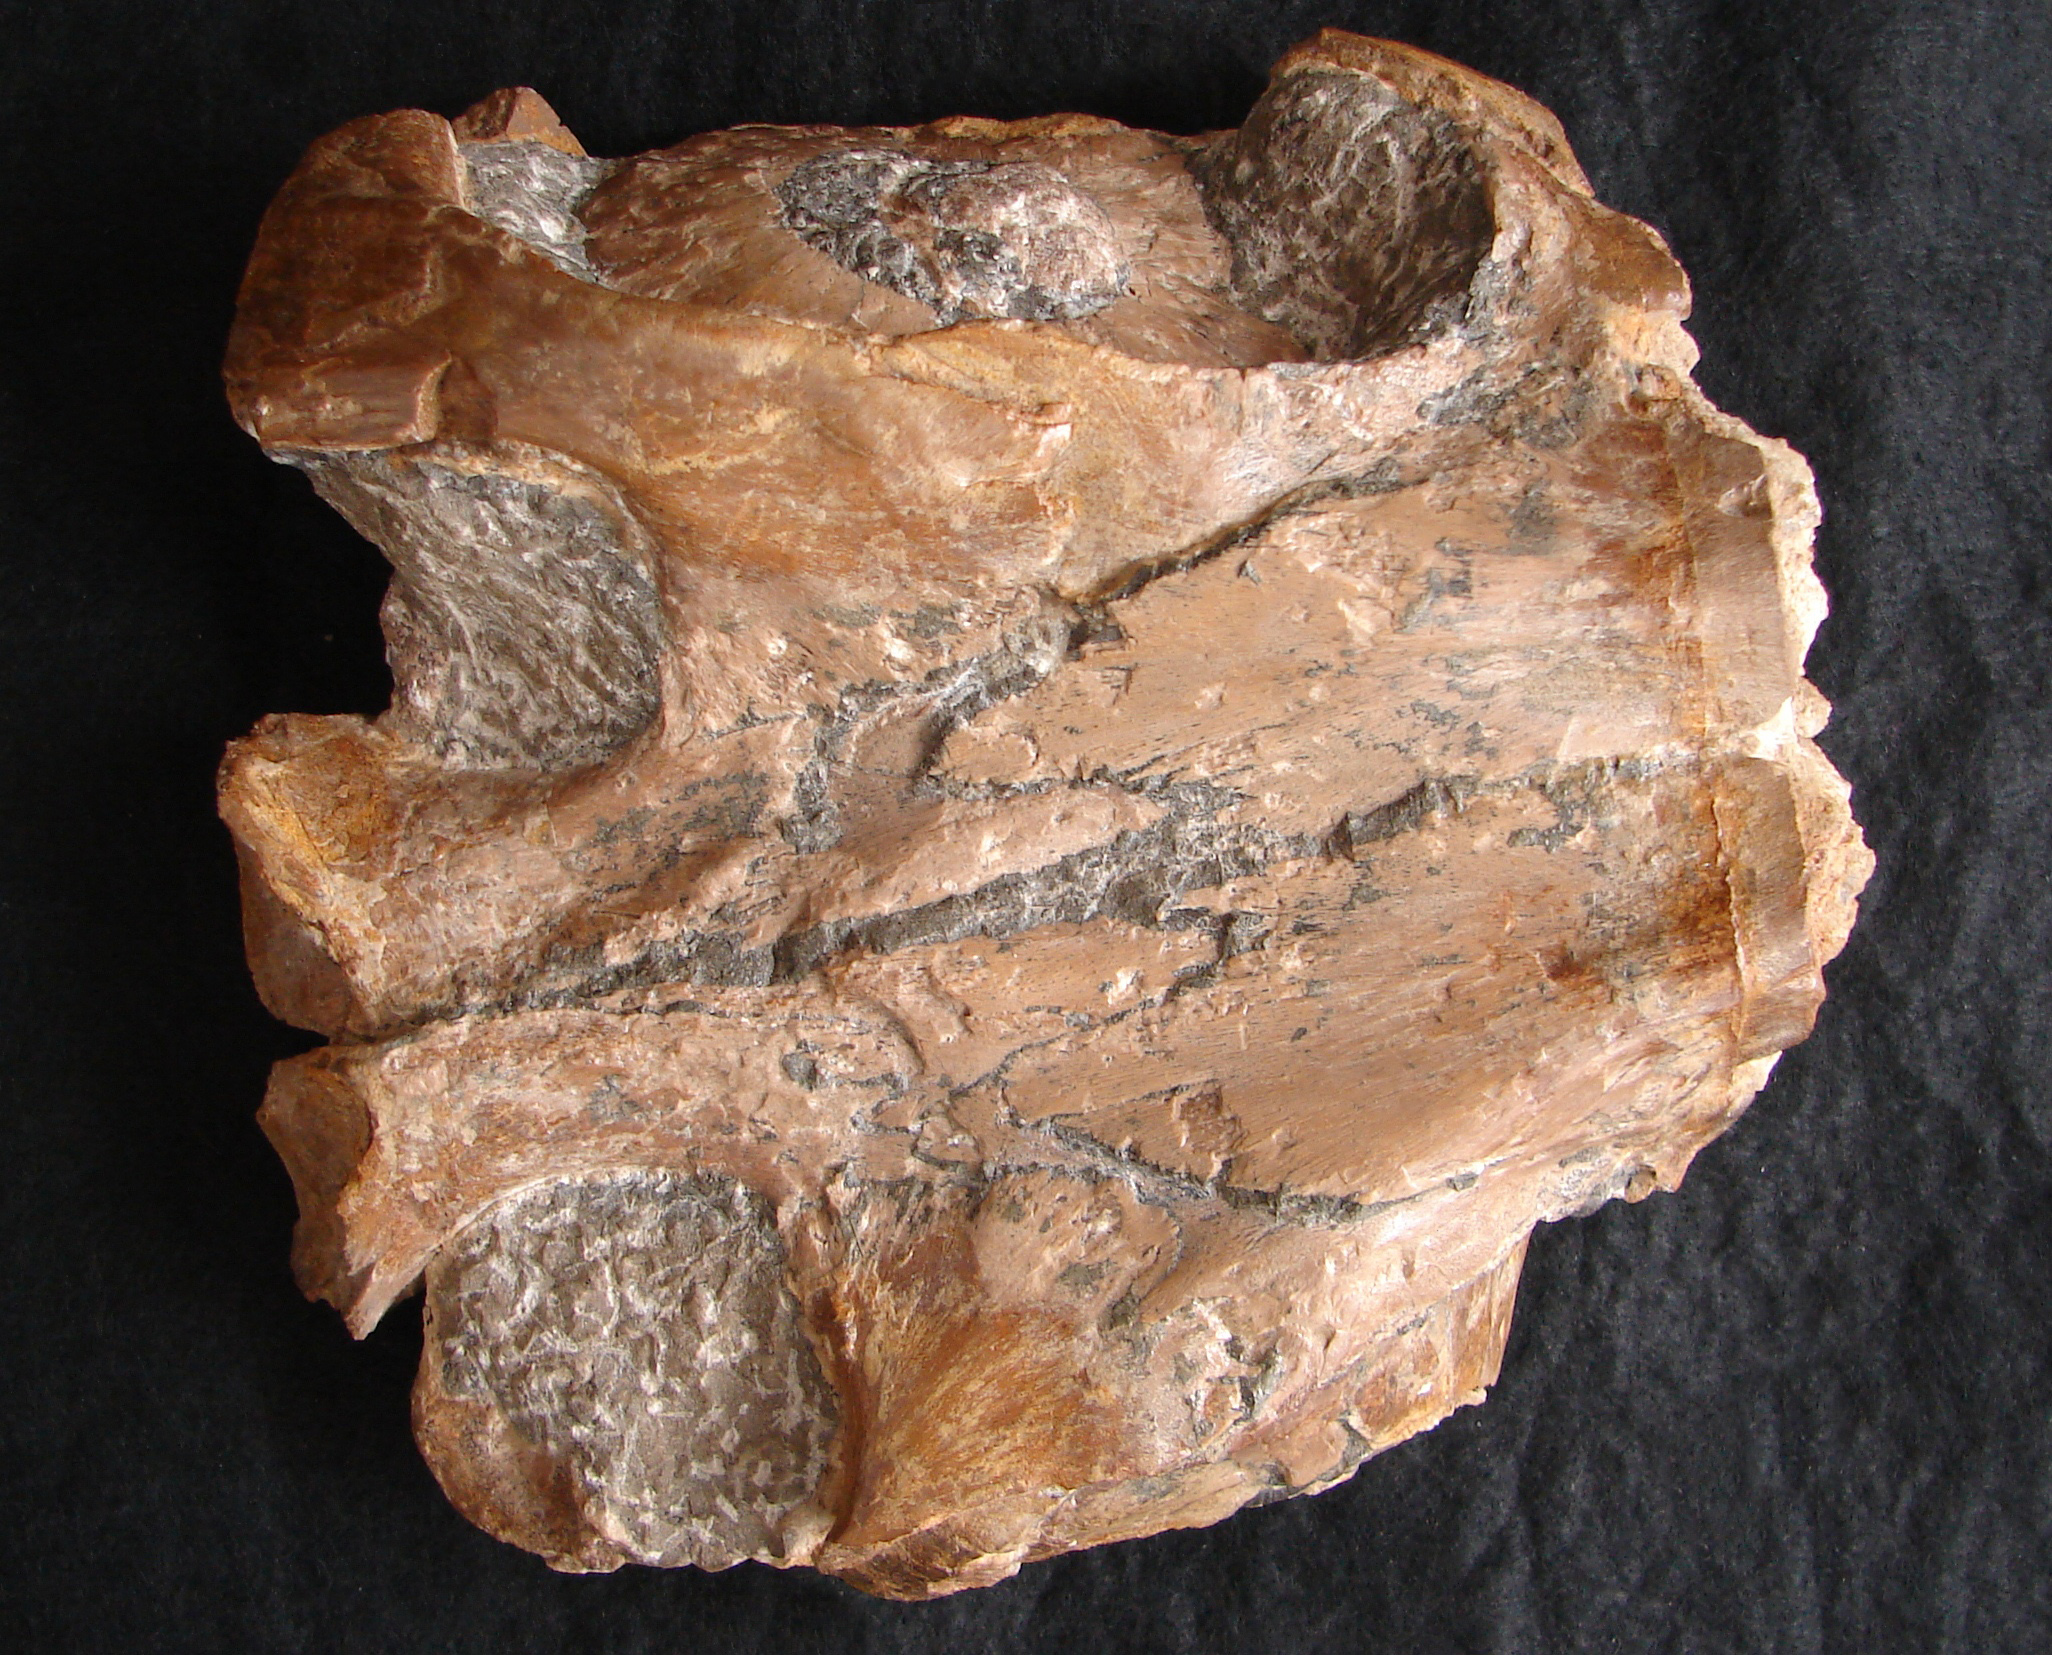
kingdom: Animalia
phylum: Chordata
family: Stenopterygiidae
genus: Stenopterygius
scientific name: Stenopterygius longifrons
